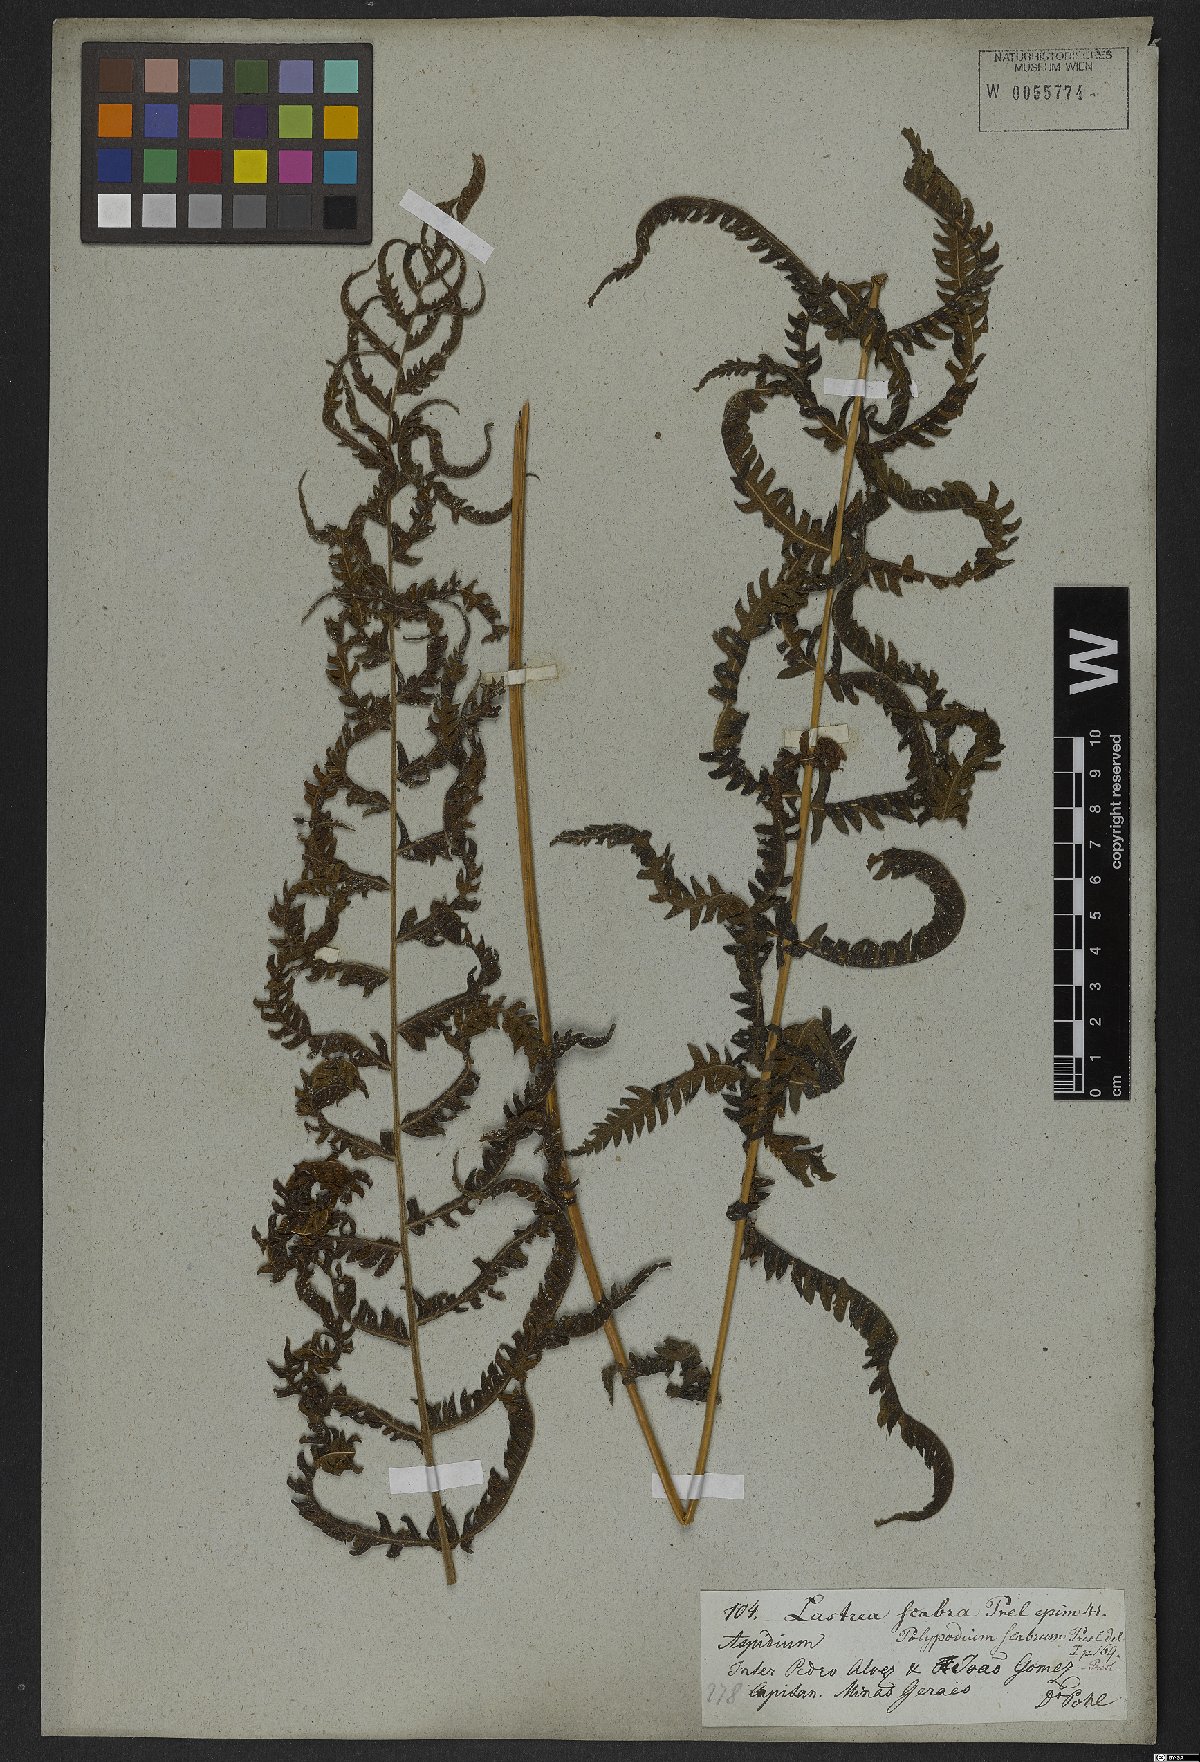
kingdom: Plantae
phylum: Tracheophyta
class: Polypodiopsida
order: Polypodiales
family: Thelypteridaceae
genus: Goniopteris
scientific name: Goniopteris scabra
